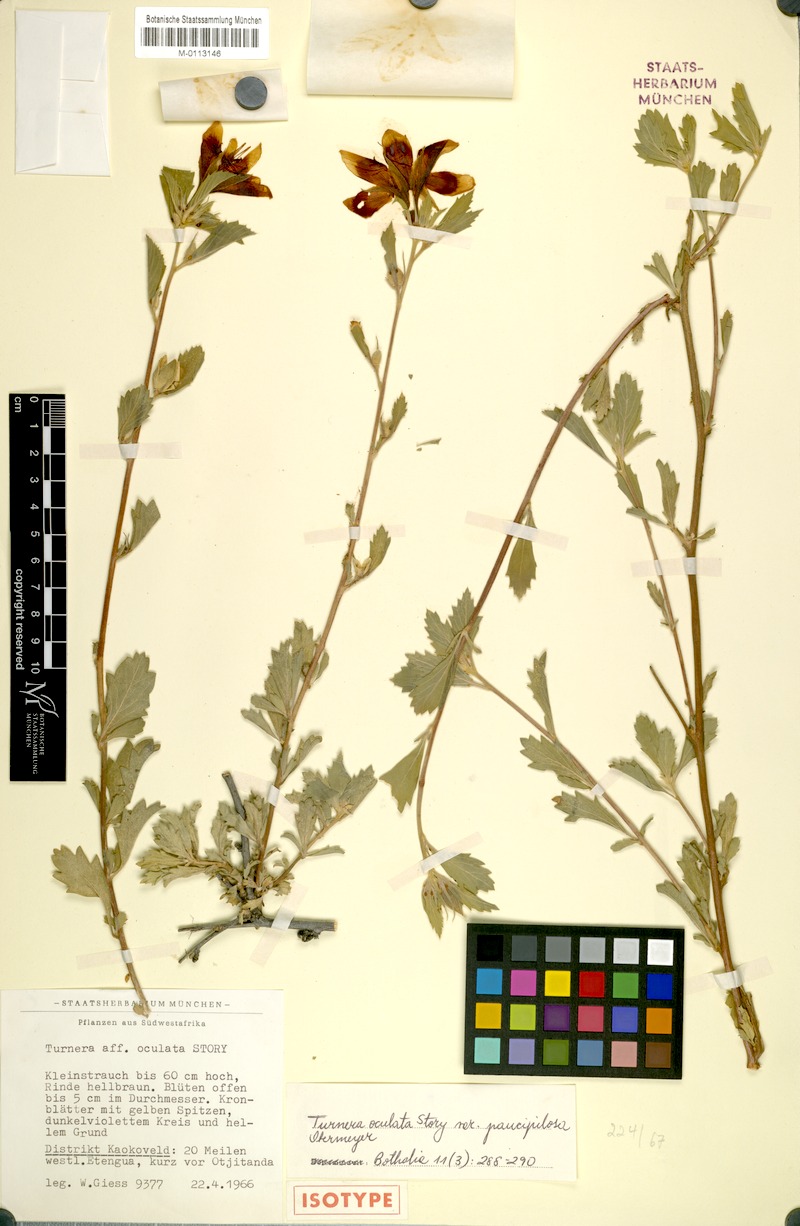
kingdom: Plantae
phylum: Tracheophyta
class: Magnoliopsida
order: Malpighiales
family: Turneraceae
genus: Turnera
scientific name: Turnera oculta
